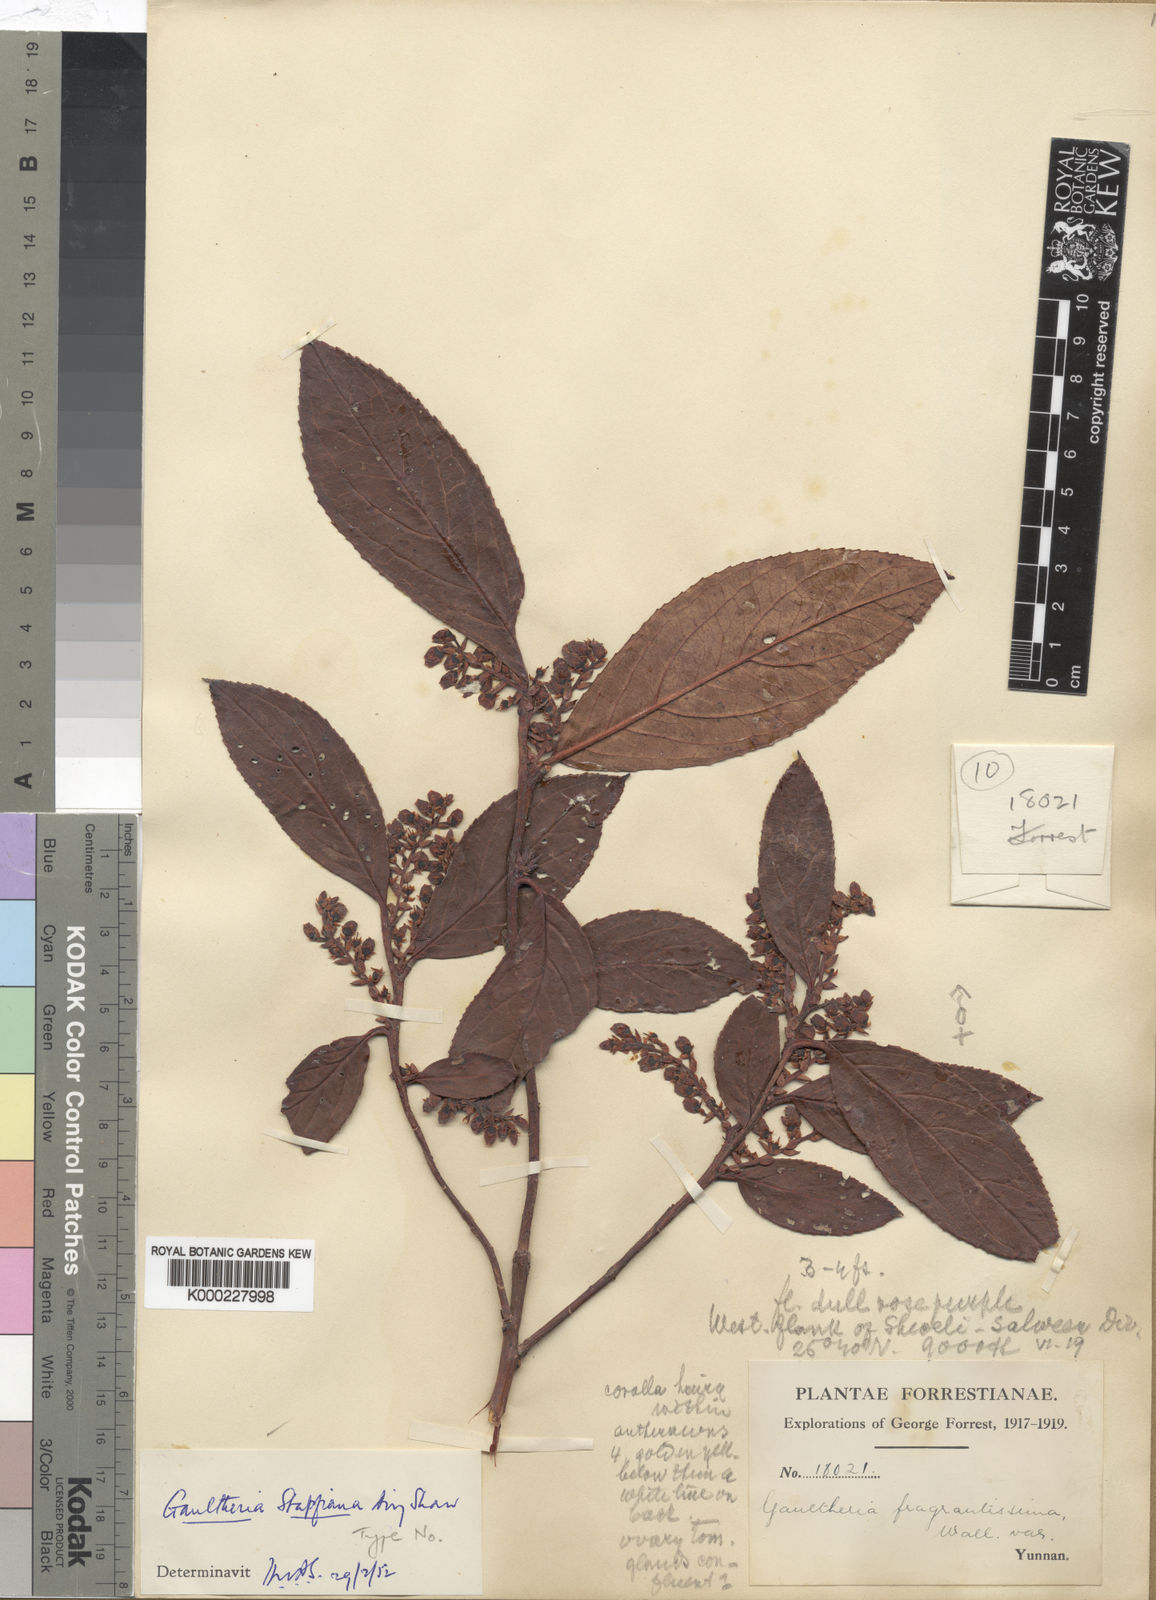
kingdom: Plantae
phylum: Tracheophyta
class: Magnoliopsida
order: Ericales
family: Ericaceae
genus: Gaultheria
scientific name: Gaultheria hookeri
